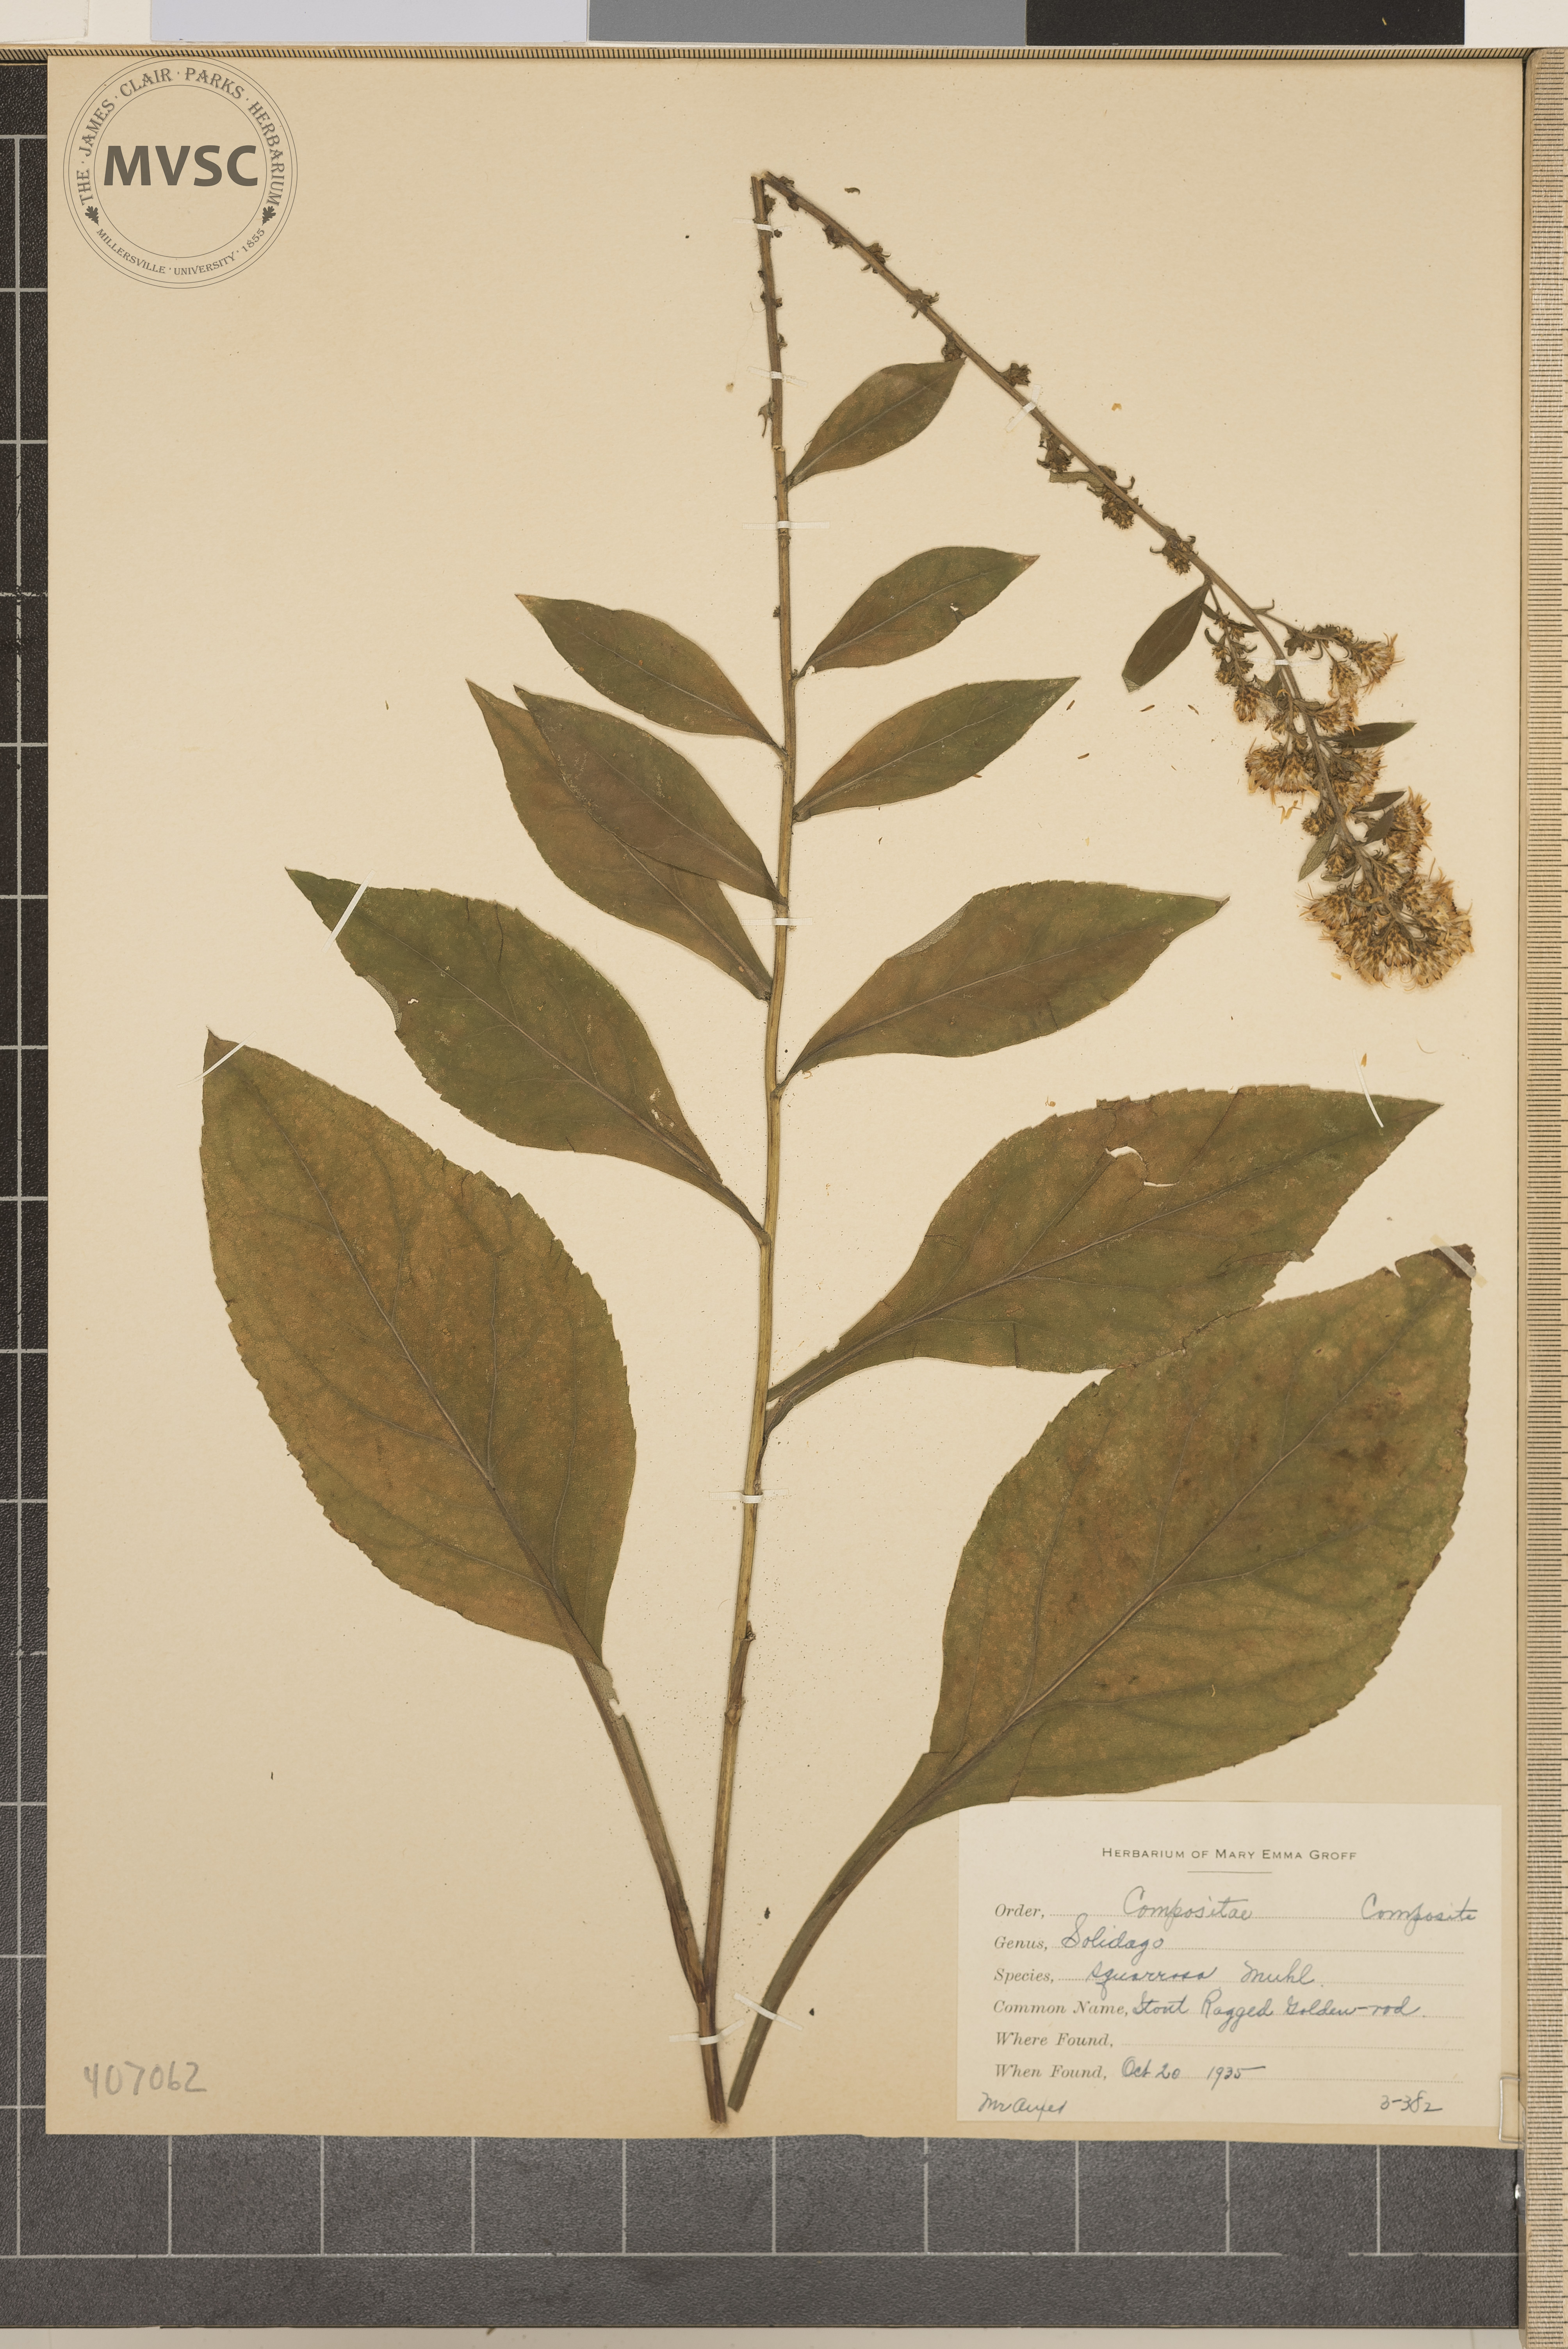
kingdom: Plantae
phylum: Tracheophyta
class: Magnoliopsida
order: Asterales
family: Asteraceae
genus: Solidago
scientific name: Solidago squarrosa
